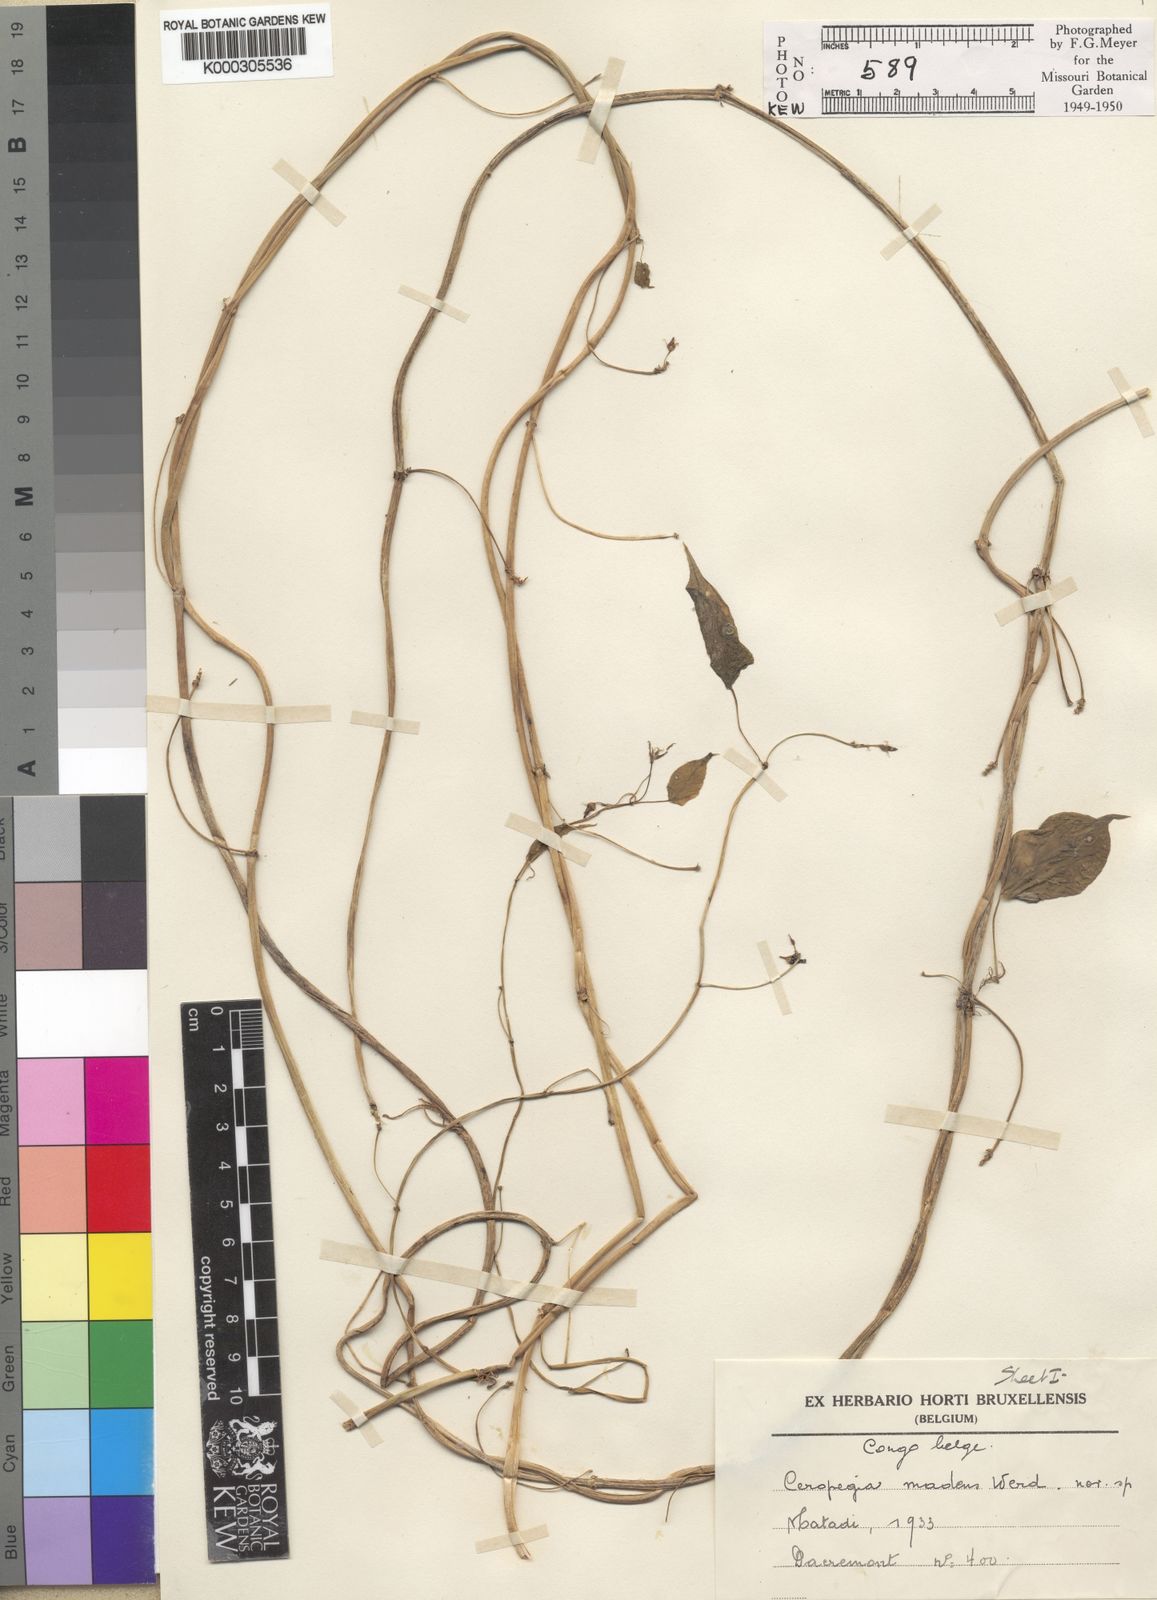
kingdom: Plantae
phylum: Tracheophyta
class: Magnoliopsida
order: Gentianales
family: Apocynaceae
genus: Ceropegia
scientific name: Ceropegia madens
